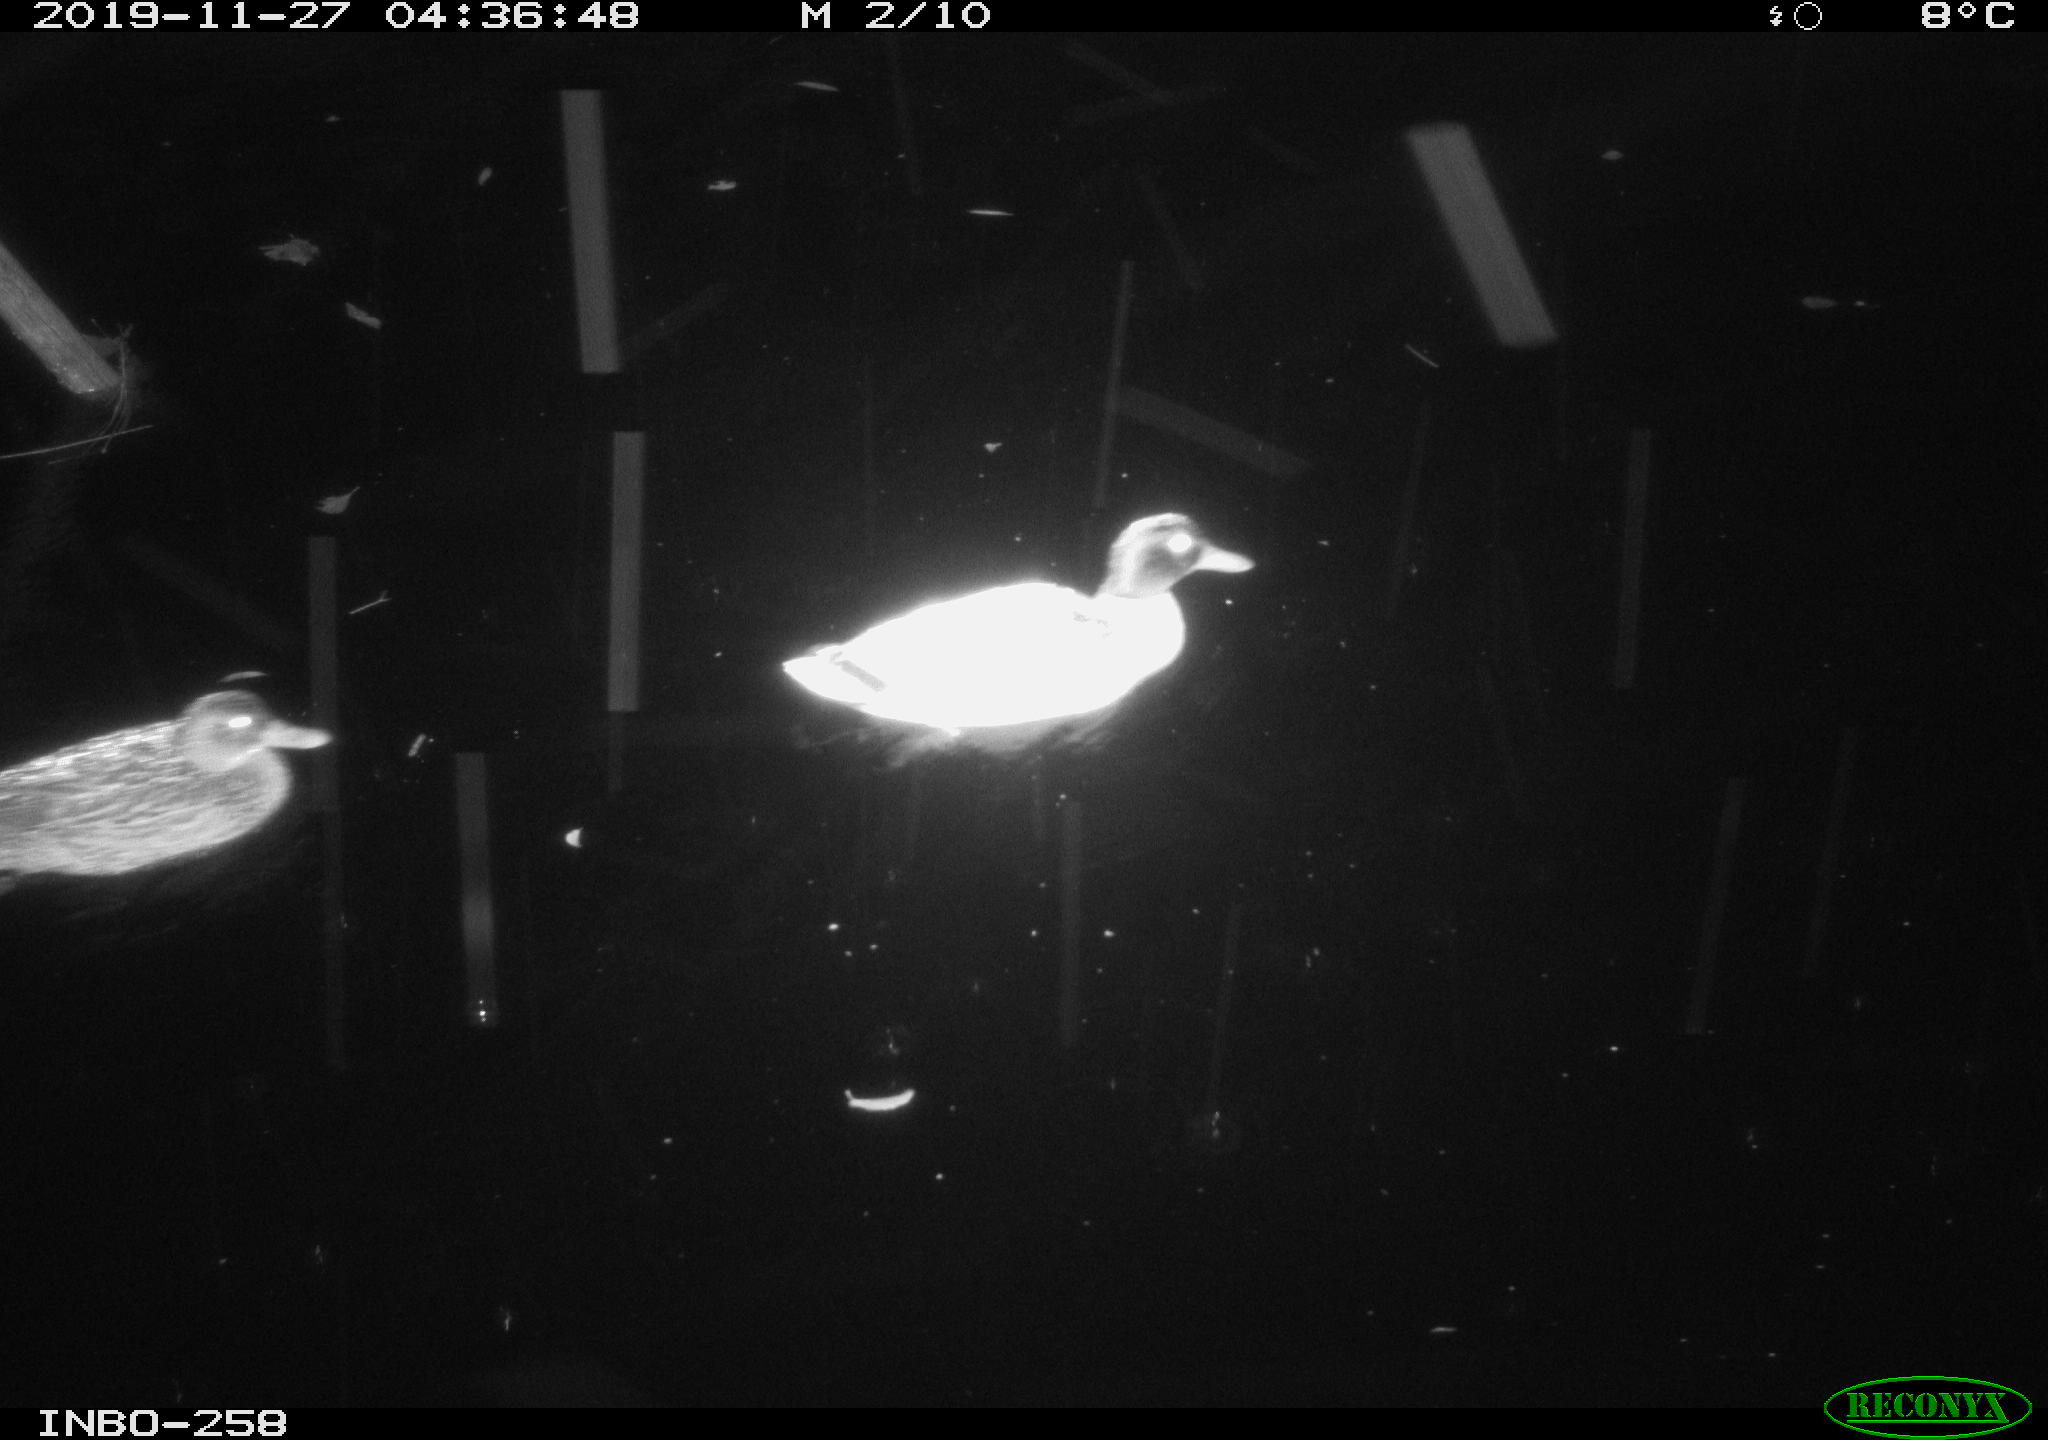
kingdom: Animalia
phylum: Chordata
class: Aves
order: Anseriformes
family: Anatidae
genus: Anas
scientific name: Anas platyrhynchos
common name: Mallard
